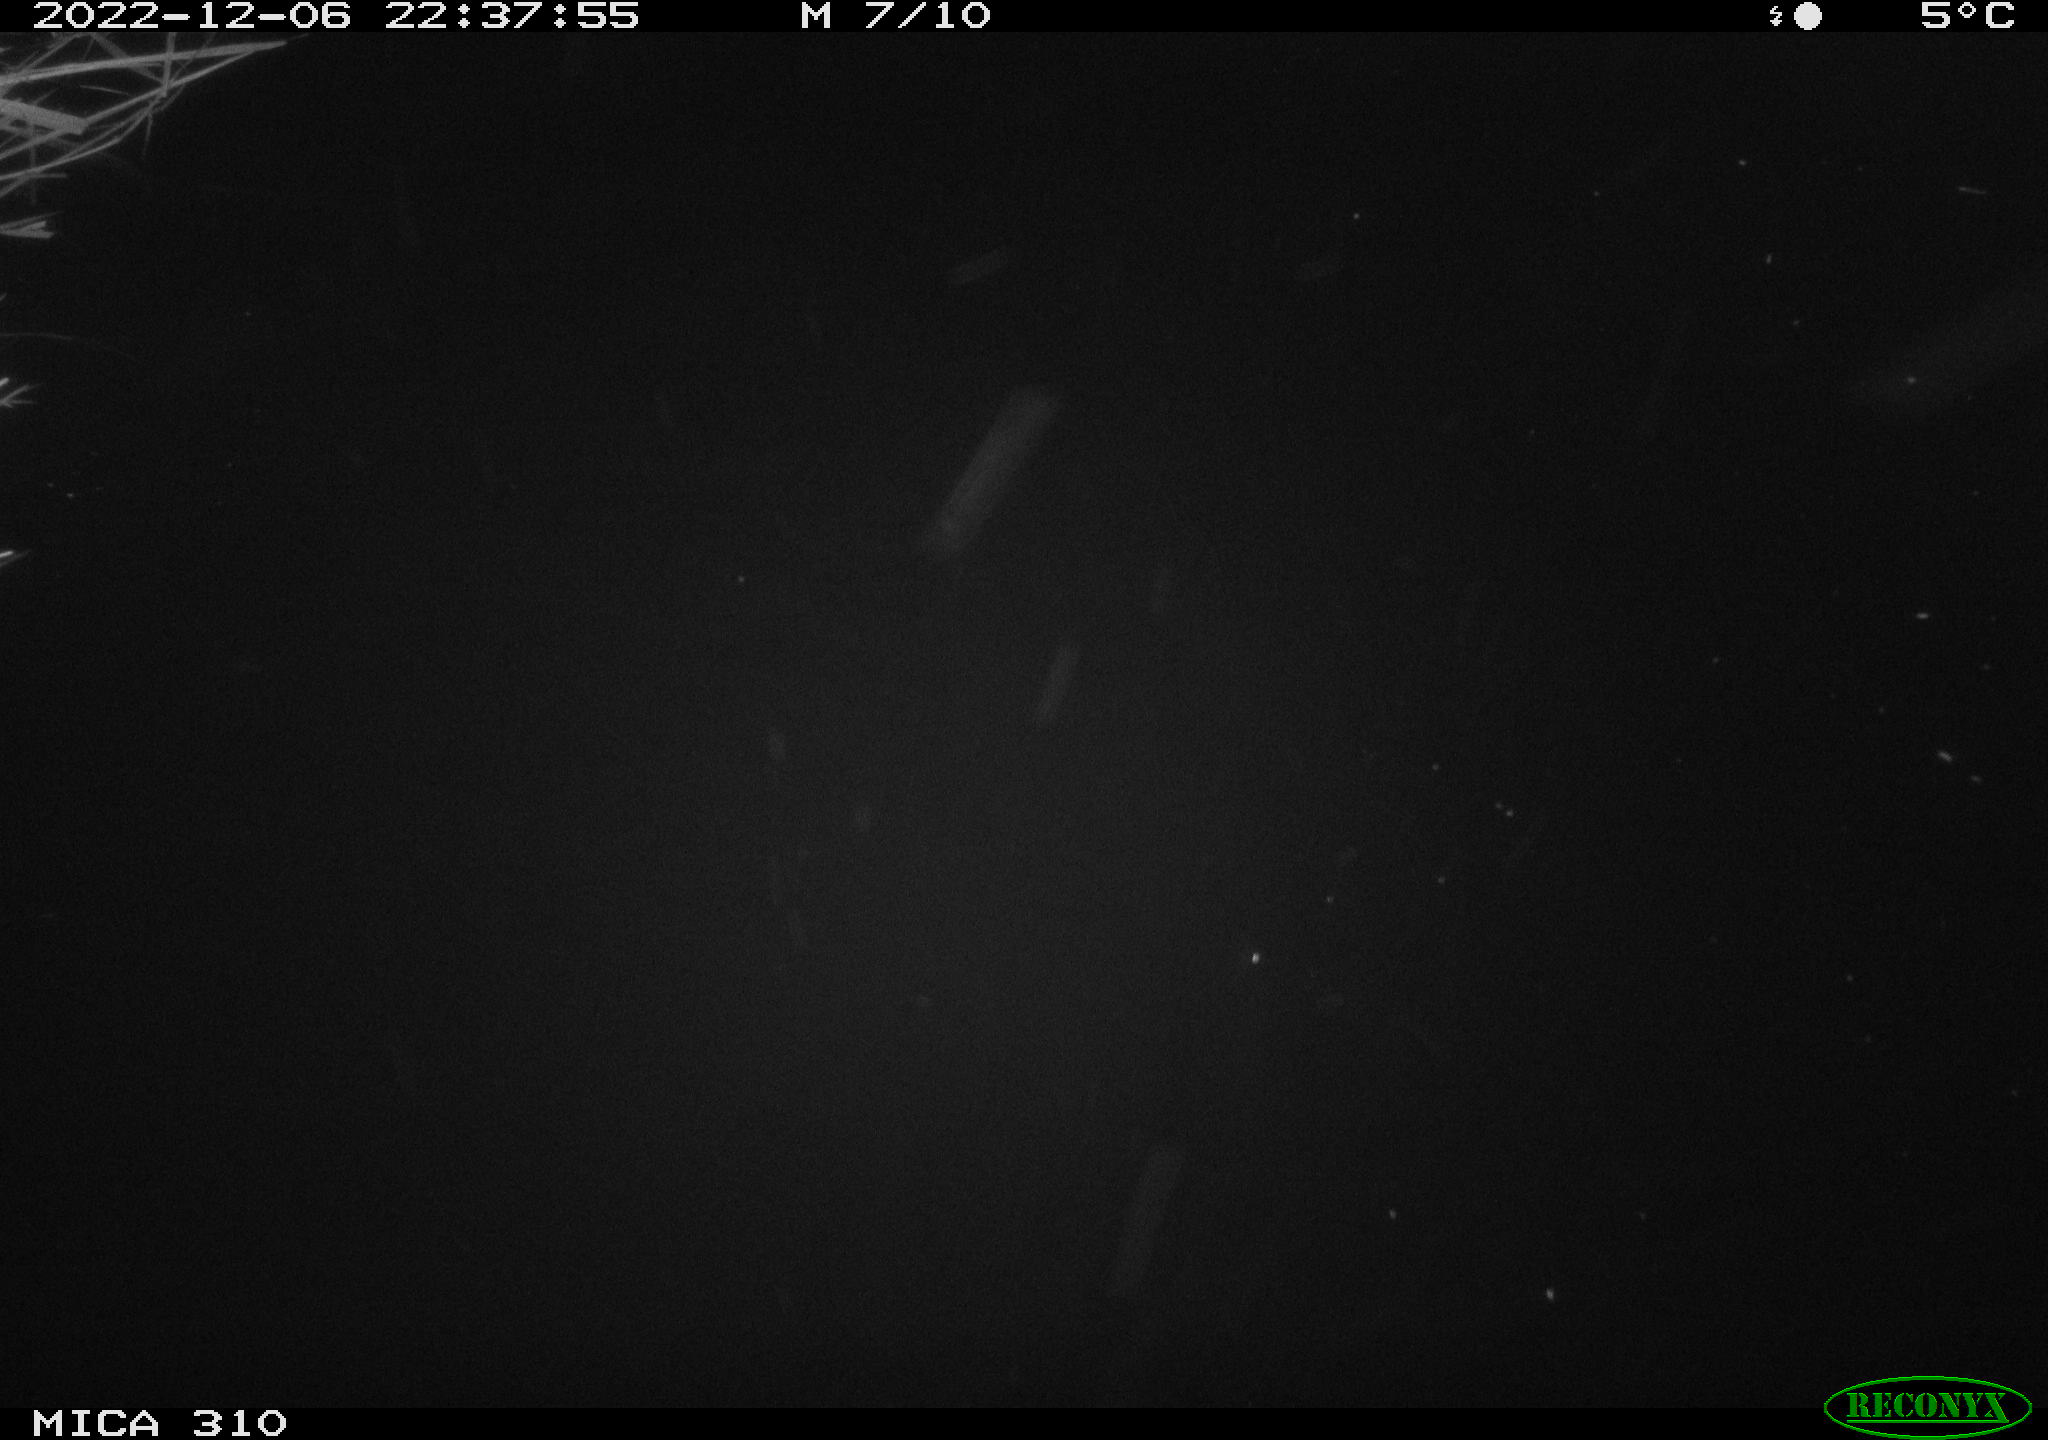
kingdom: Animalia
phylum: Chordata
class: Mammalia
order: Rodentia
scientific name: Rodentia
